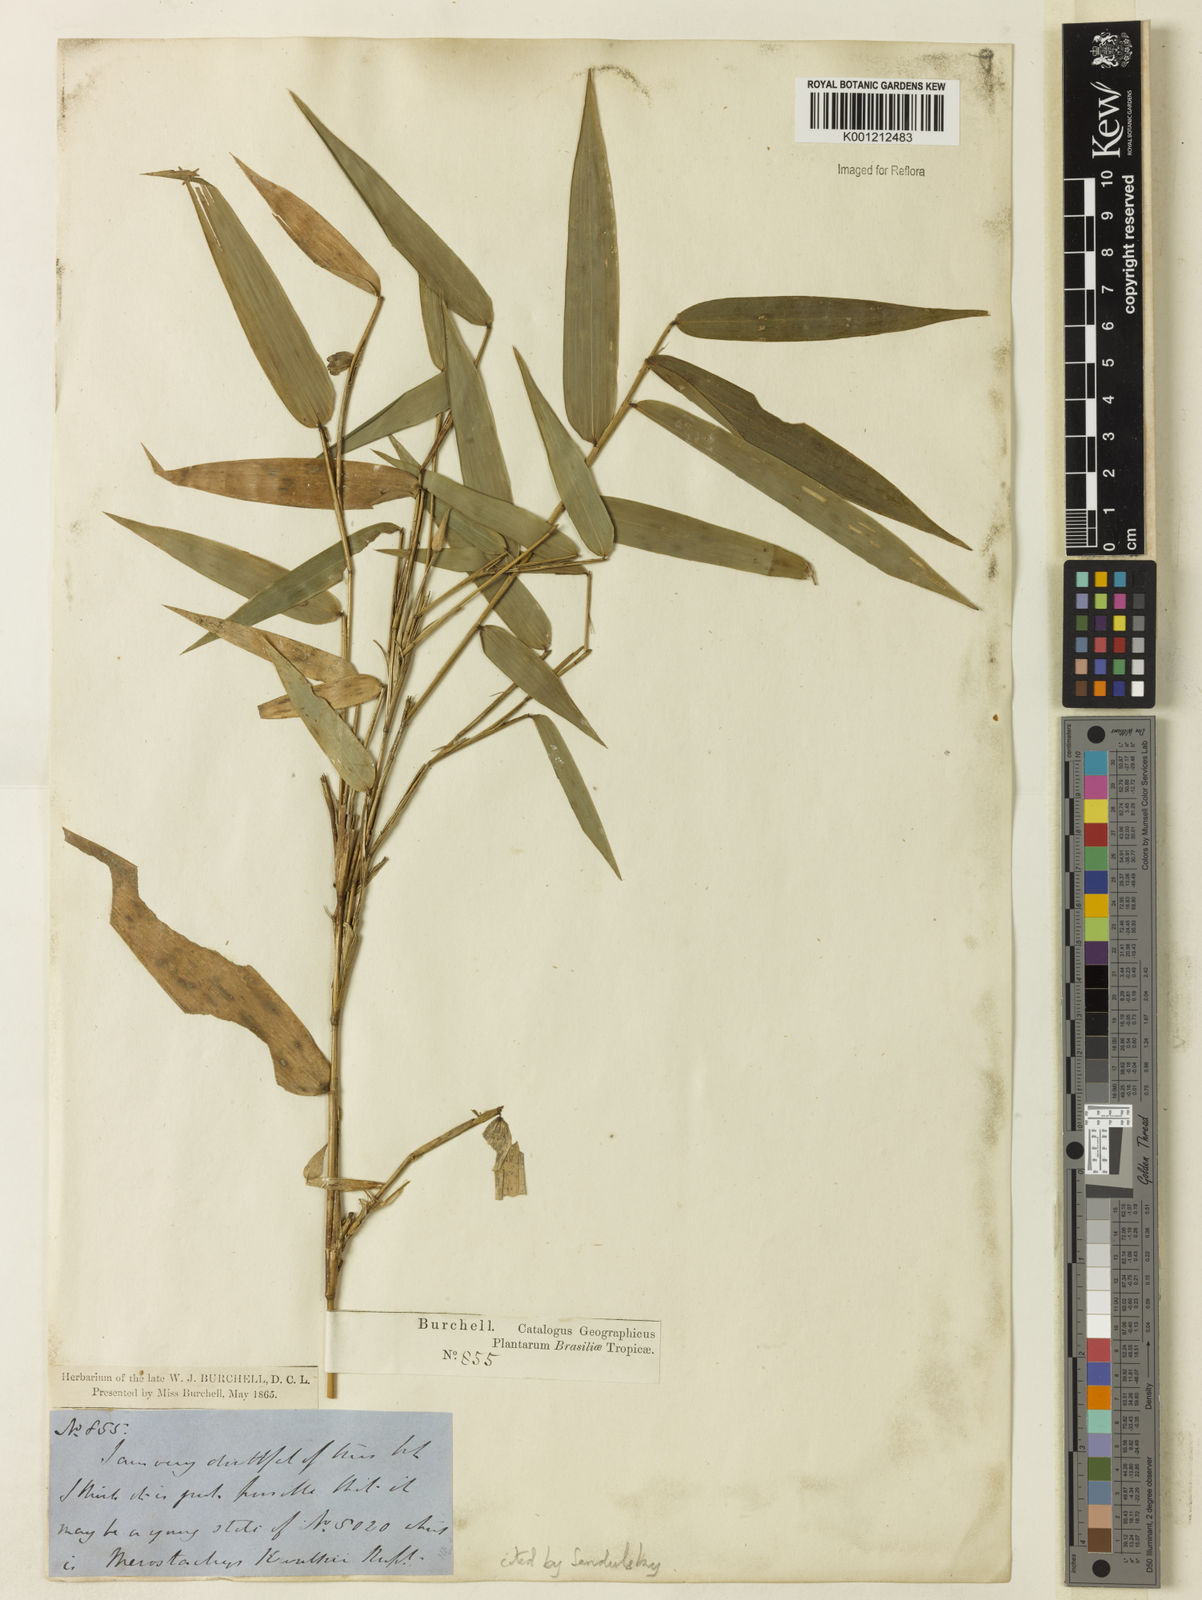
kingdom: Plantae
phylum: Tracheophyta
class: Liliopsida
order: Poales
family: Poaceae
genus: Merostachys
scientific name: Merostachys kunthii
